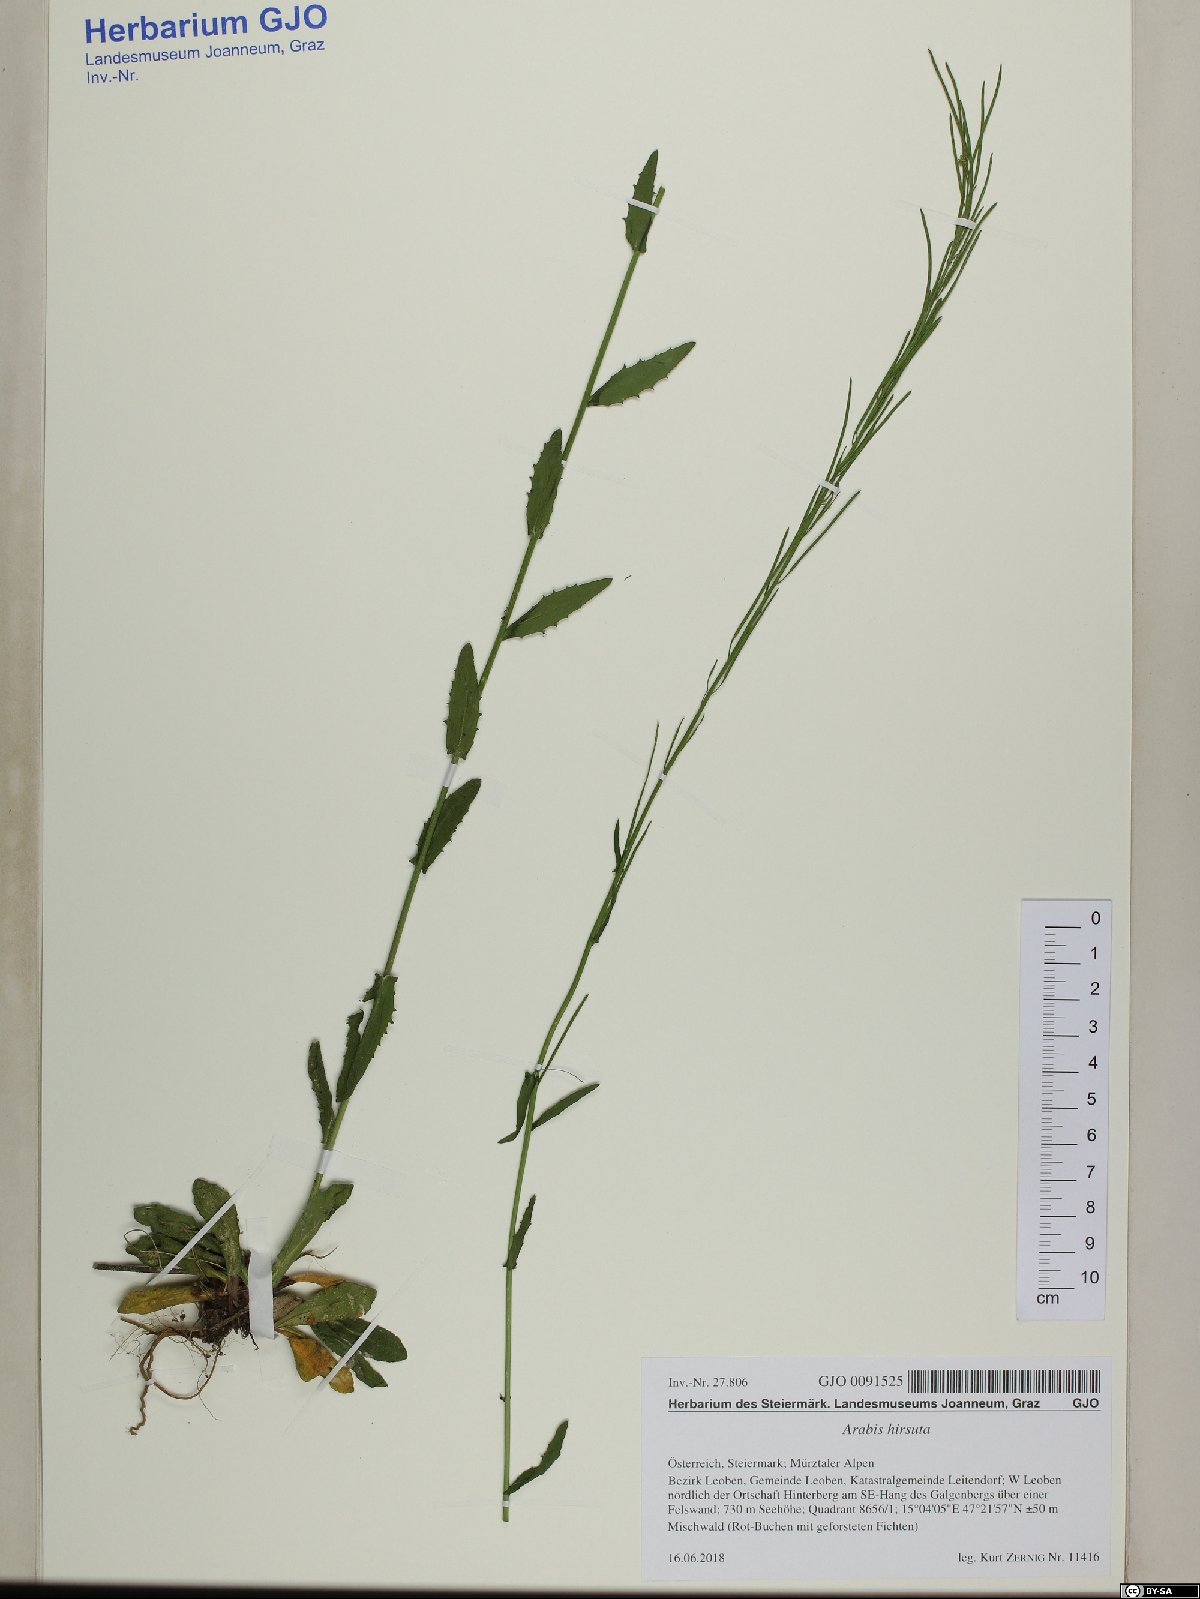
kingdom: Plantae
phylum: Tracheophyta
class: Magnoliopsida
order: Brassicales
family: Brassicaceae
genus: Arabis
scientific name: Arabis hirsuta
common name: Hairy rock-cress
